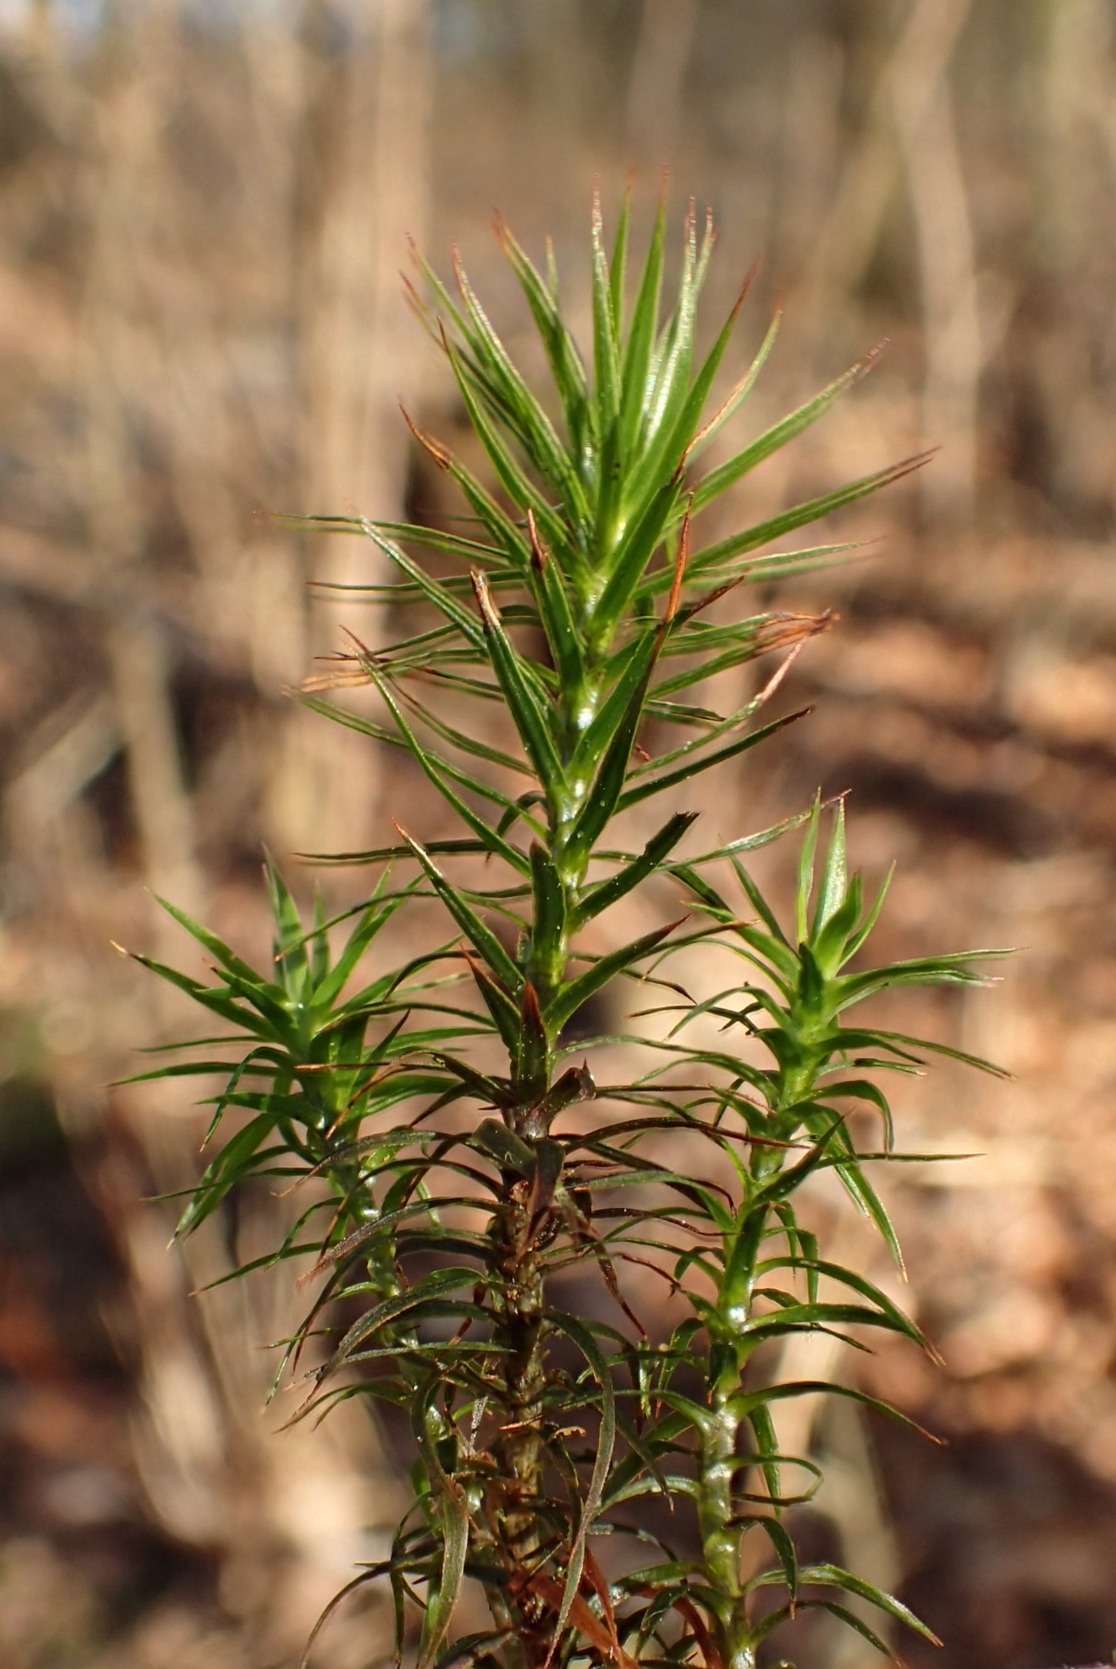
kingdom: Plantae
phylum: Bryophyta
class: Polytrichopsida
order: Polytrichales
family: Polytrichaceae
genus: Polytrichum
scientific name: Polytrichum formosum
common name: Skov-jomfruhår
